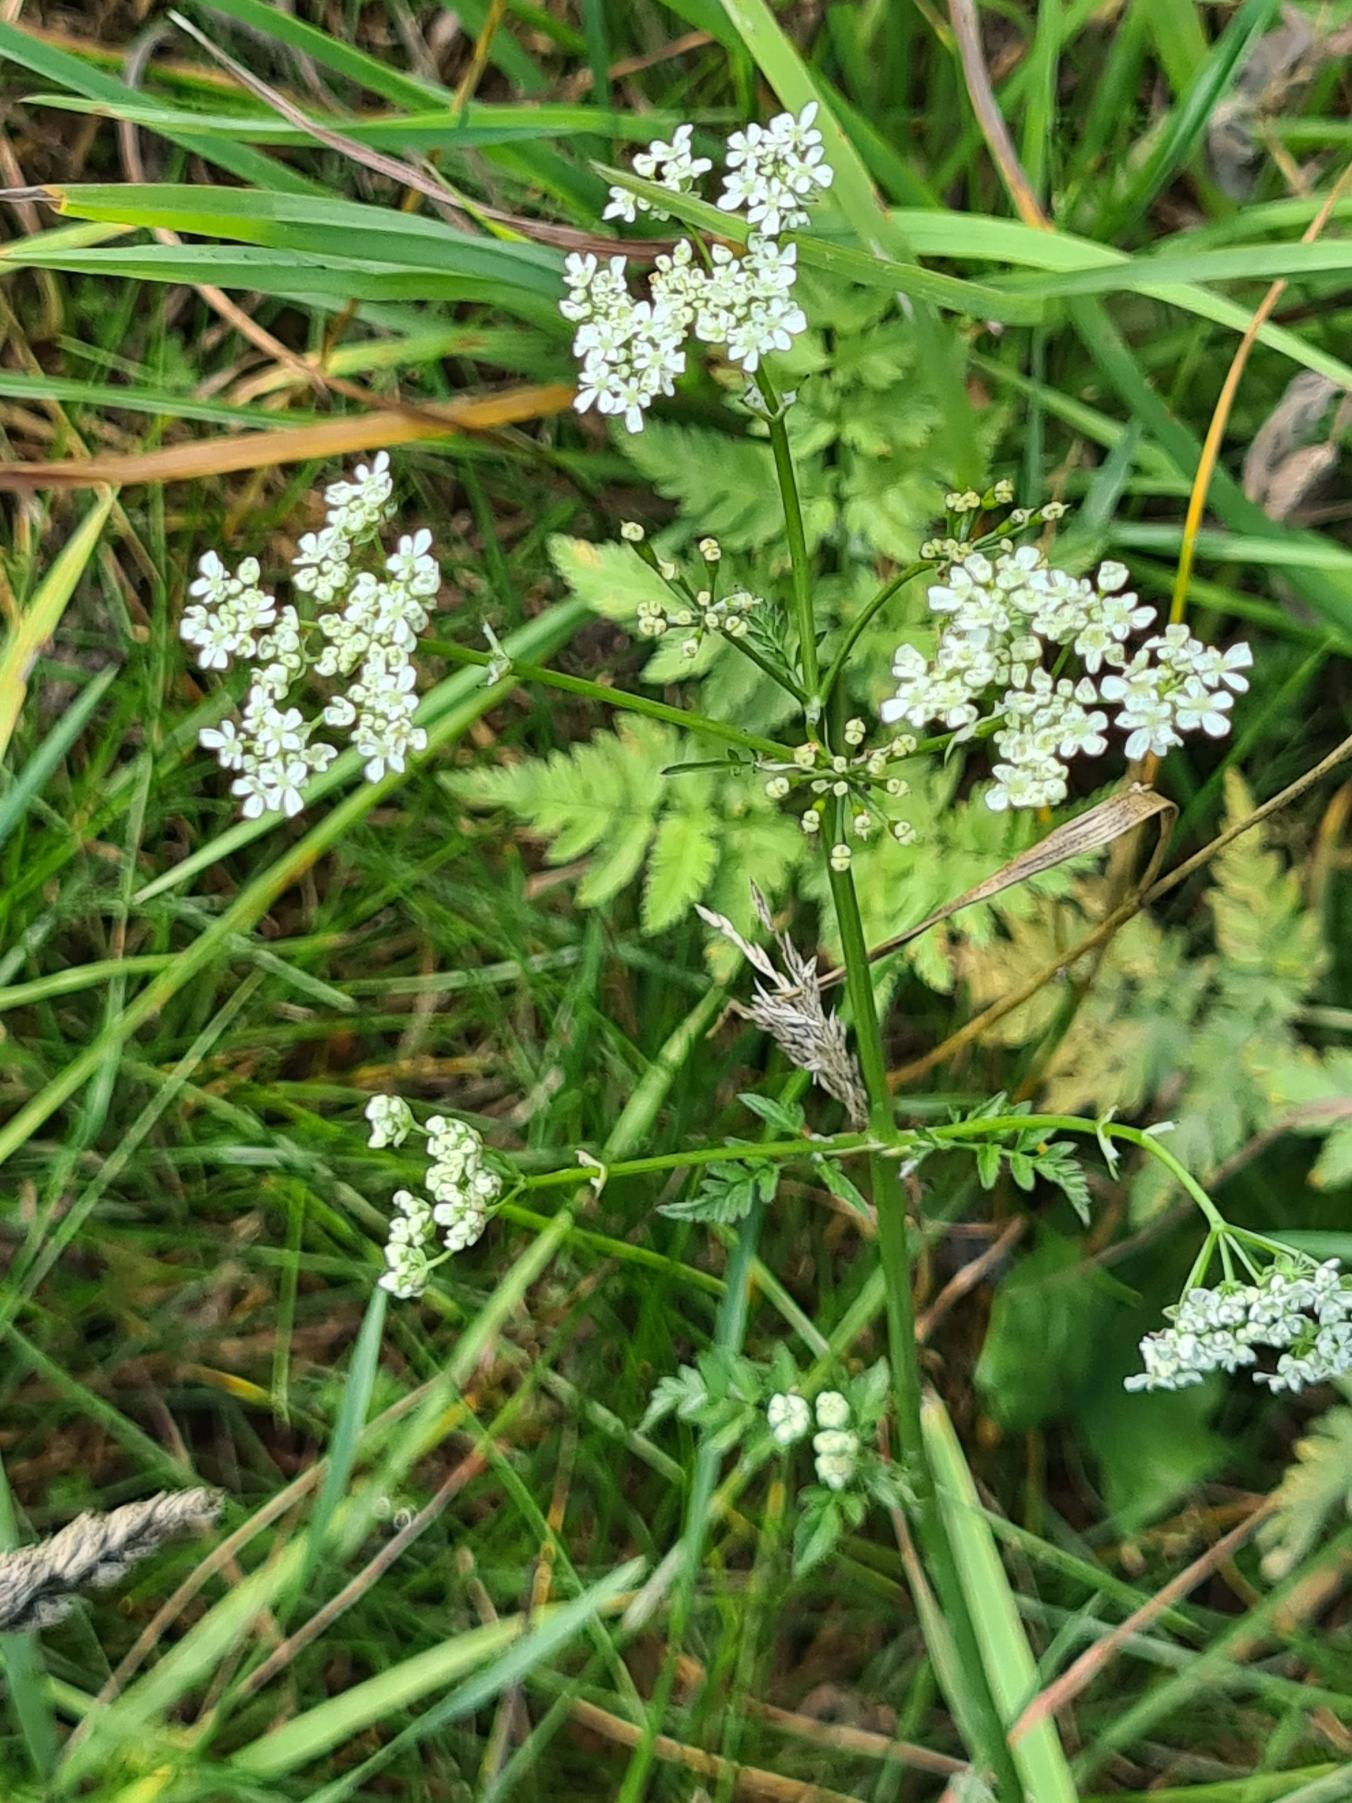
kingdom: Plantae
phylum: Tracheophyta
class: Magnoliopsida
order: Apiales
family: Apiaceae
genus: Anthriscus
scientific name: Anthriscus sylvestris
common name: Vild kørvel
